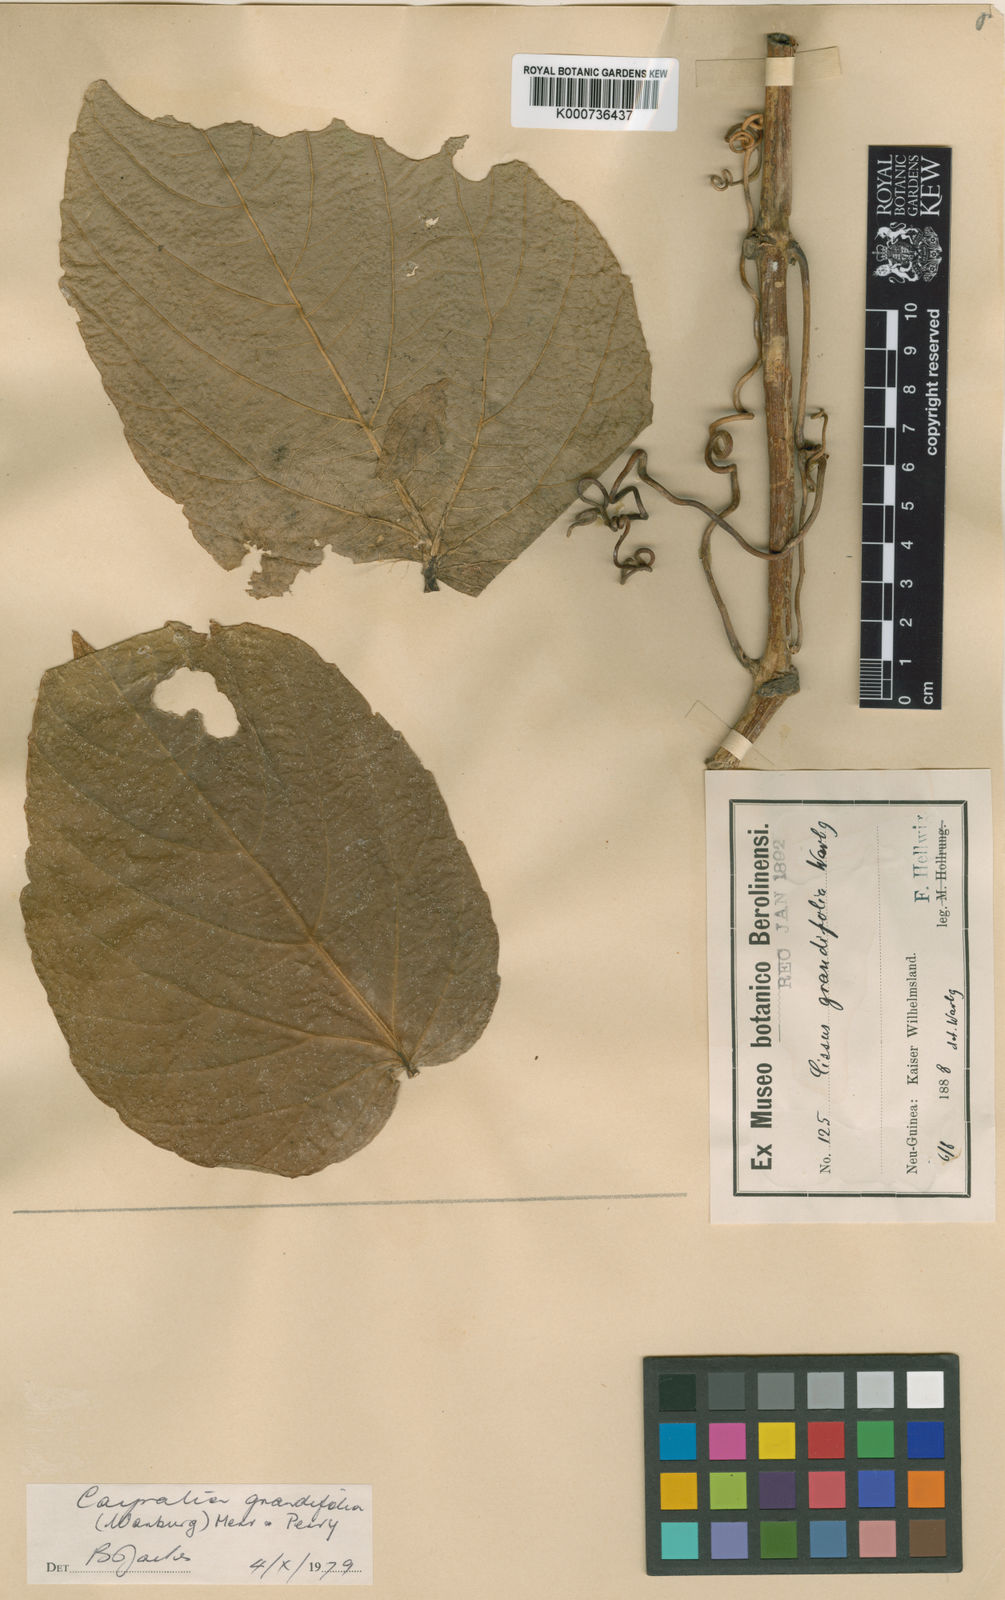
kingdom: Plantae
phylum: Tracheophyta
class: Magnoliopsida
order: Vitales
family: Vitaceae
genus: Cayratia
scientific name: Cayratia acris
